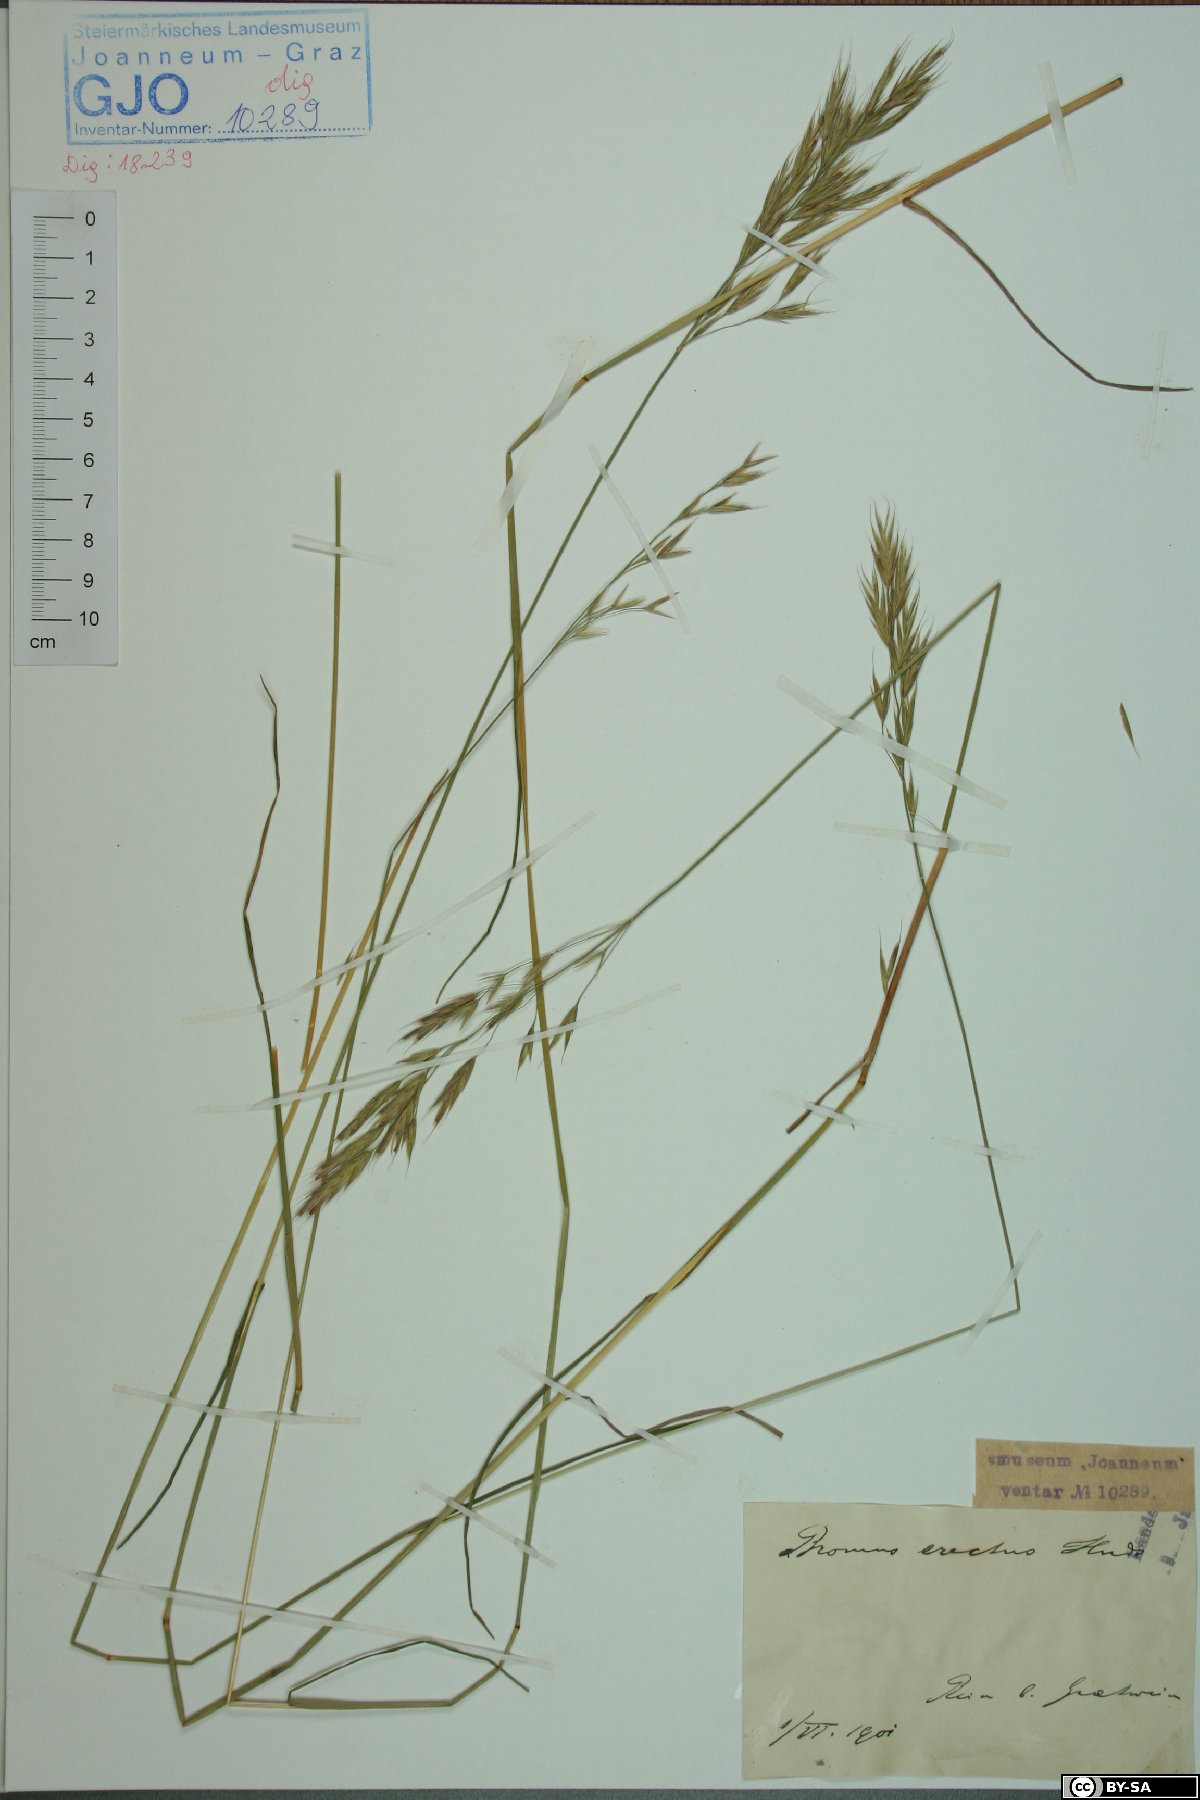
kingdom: Plantae
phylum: Tracheophyta
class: Liliopsida
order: Poales
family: Poaceae
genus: Bromus
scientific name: Bromus erectus
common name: Erect brome
